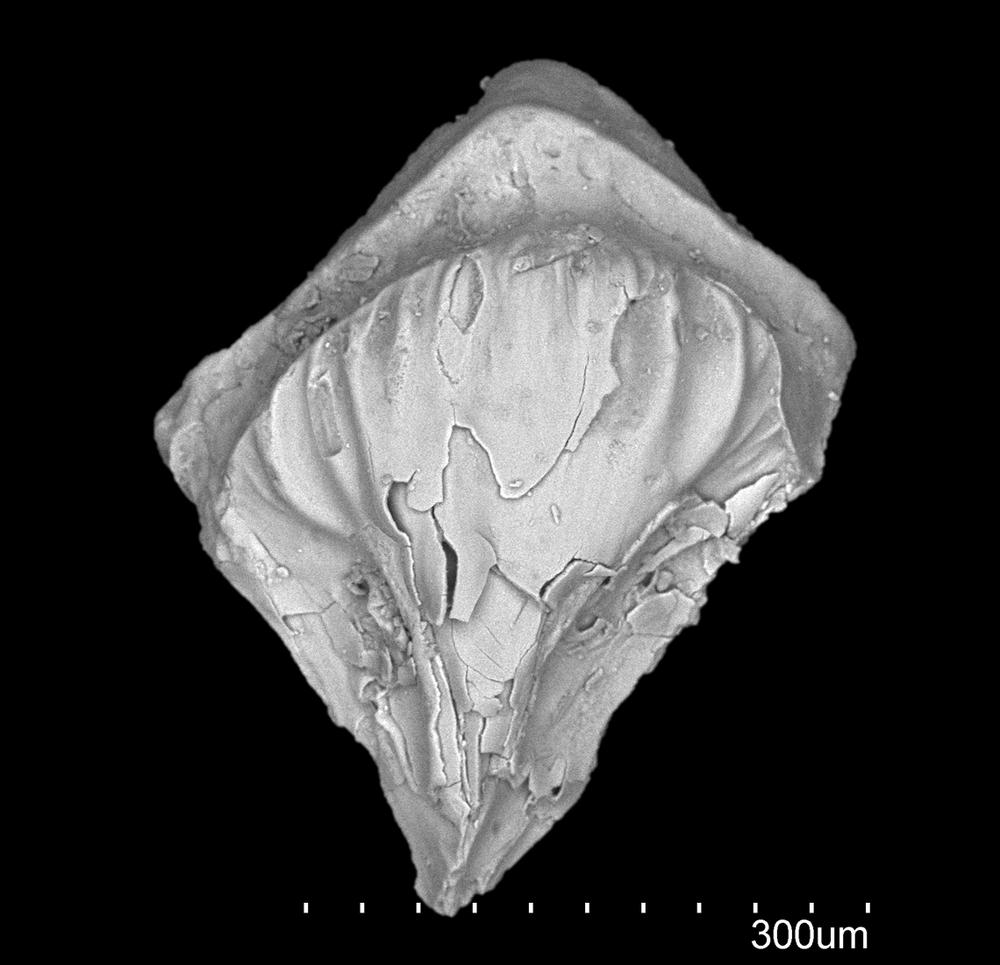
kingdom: Animalia
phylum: Chordata
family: Cheiracanthidae
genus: Ginkgolepis
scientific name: Ginkgolepis
